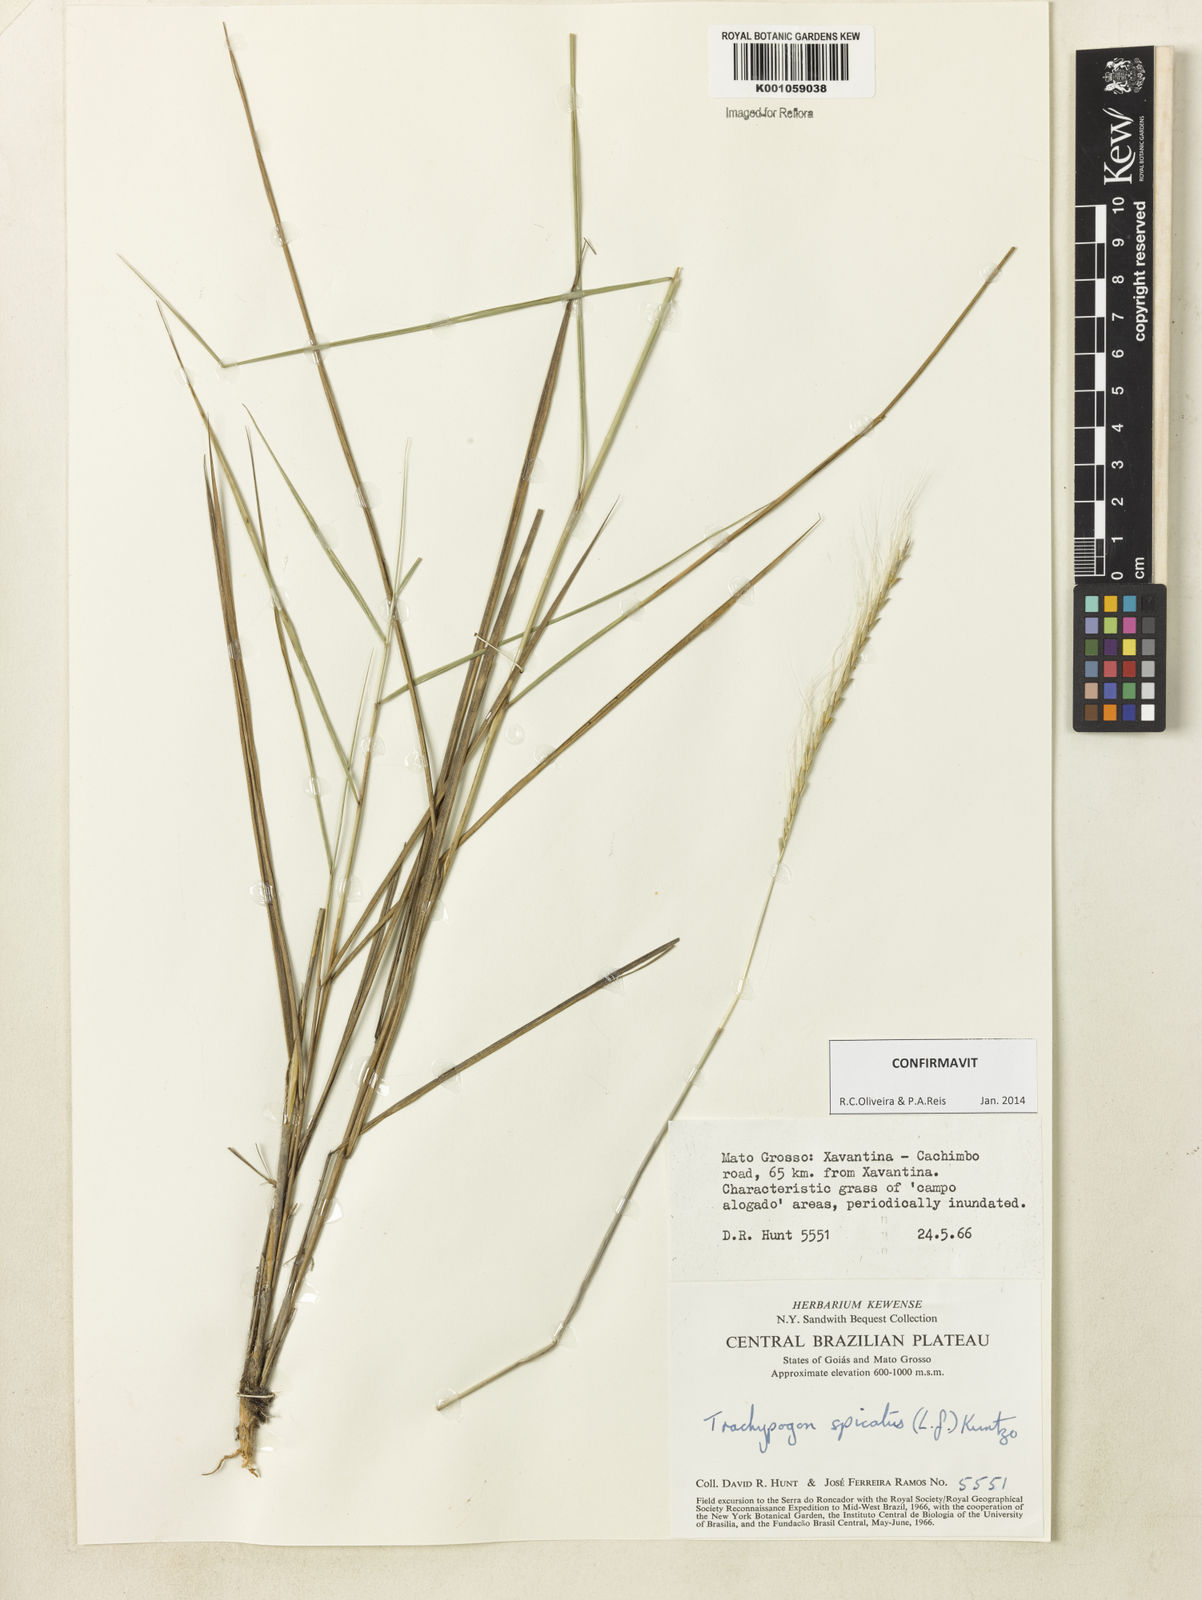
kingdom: Plantae
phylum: Tracheophyta
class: Liliopsida
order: Poales
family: Poaceae
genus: Trachypogon
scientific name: Trachypogon spicatus
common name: Crinkle-awn
